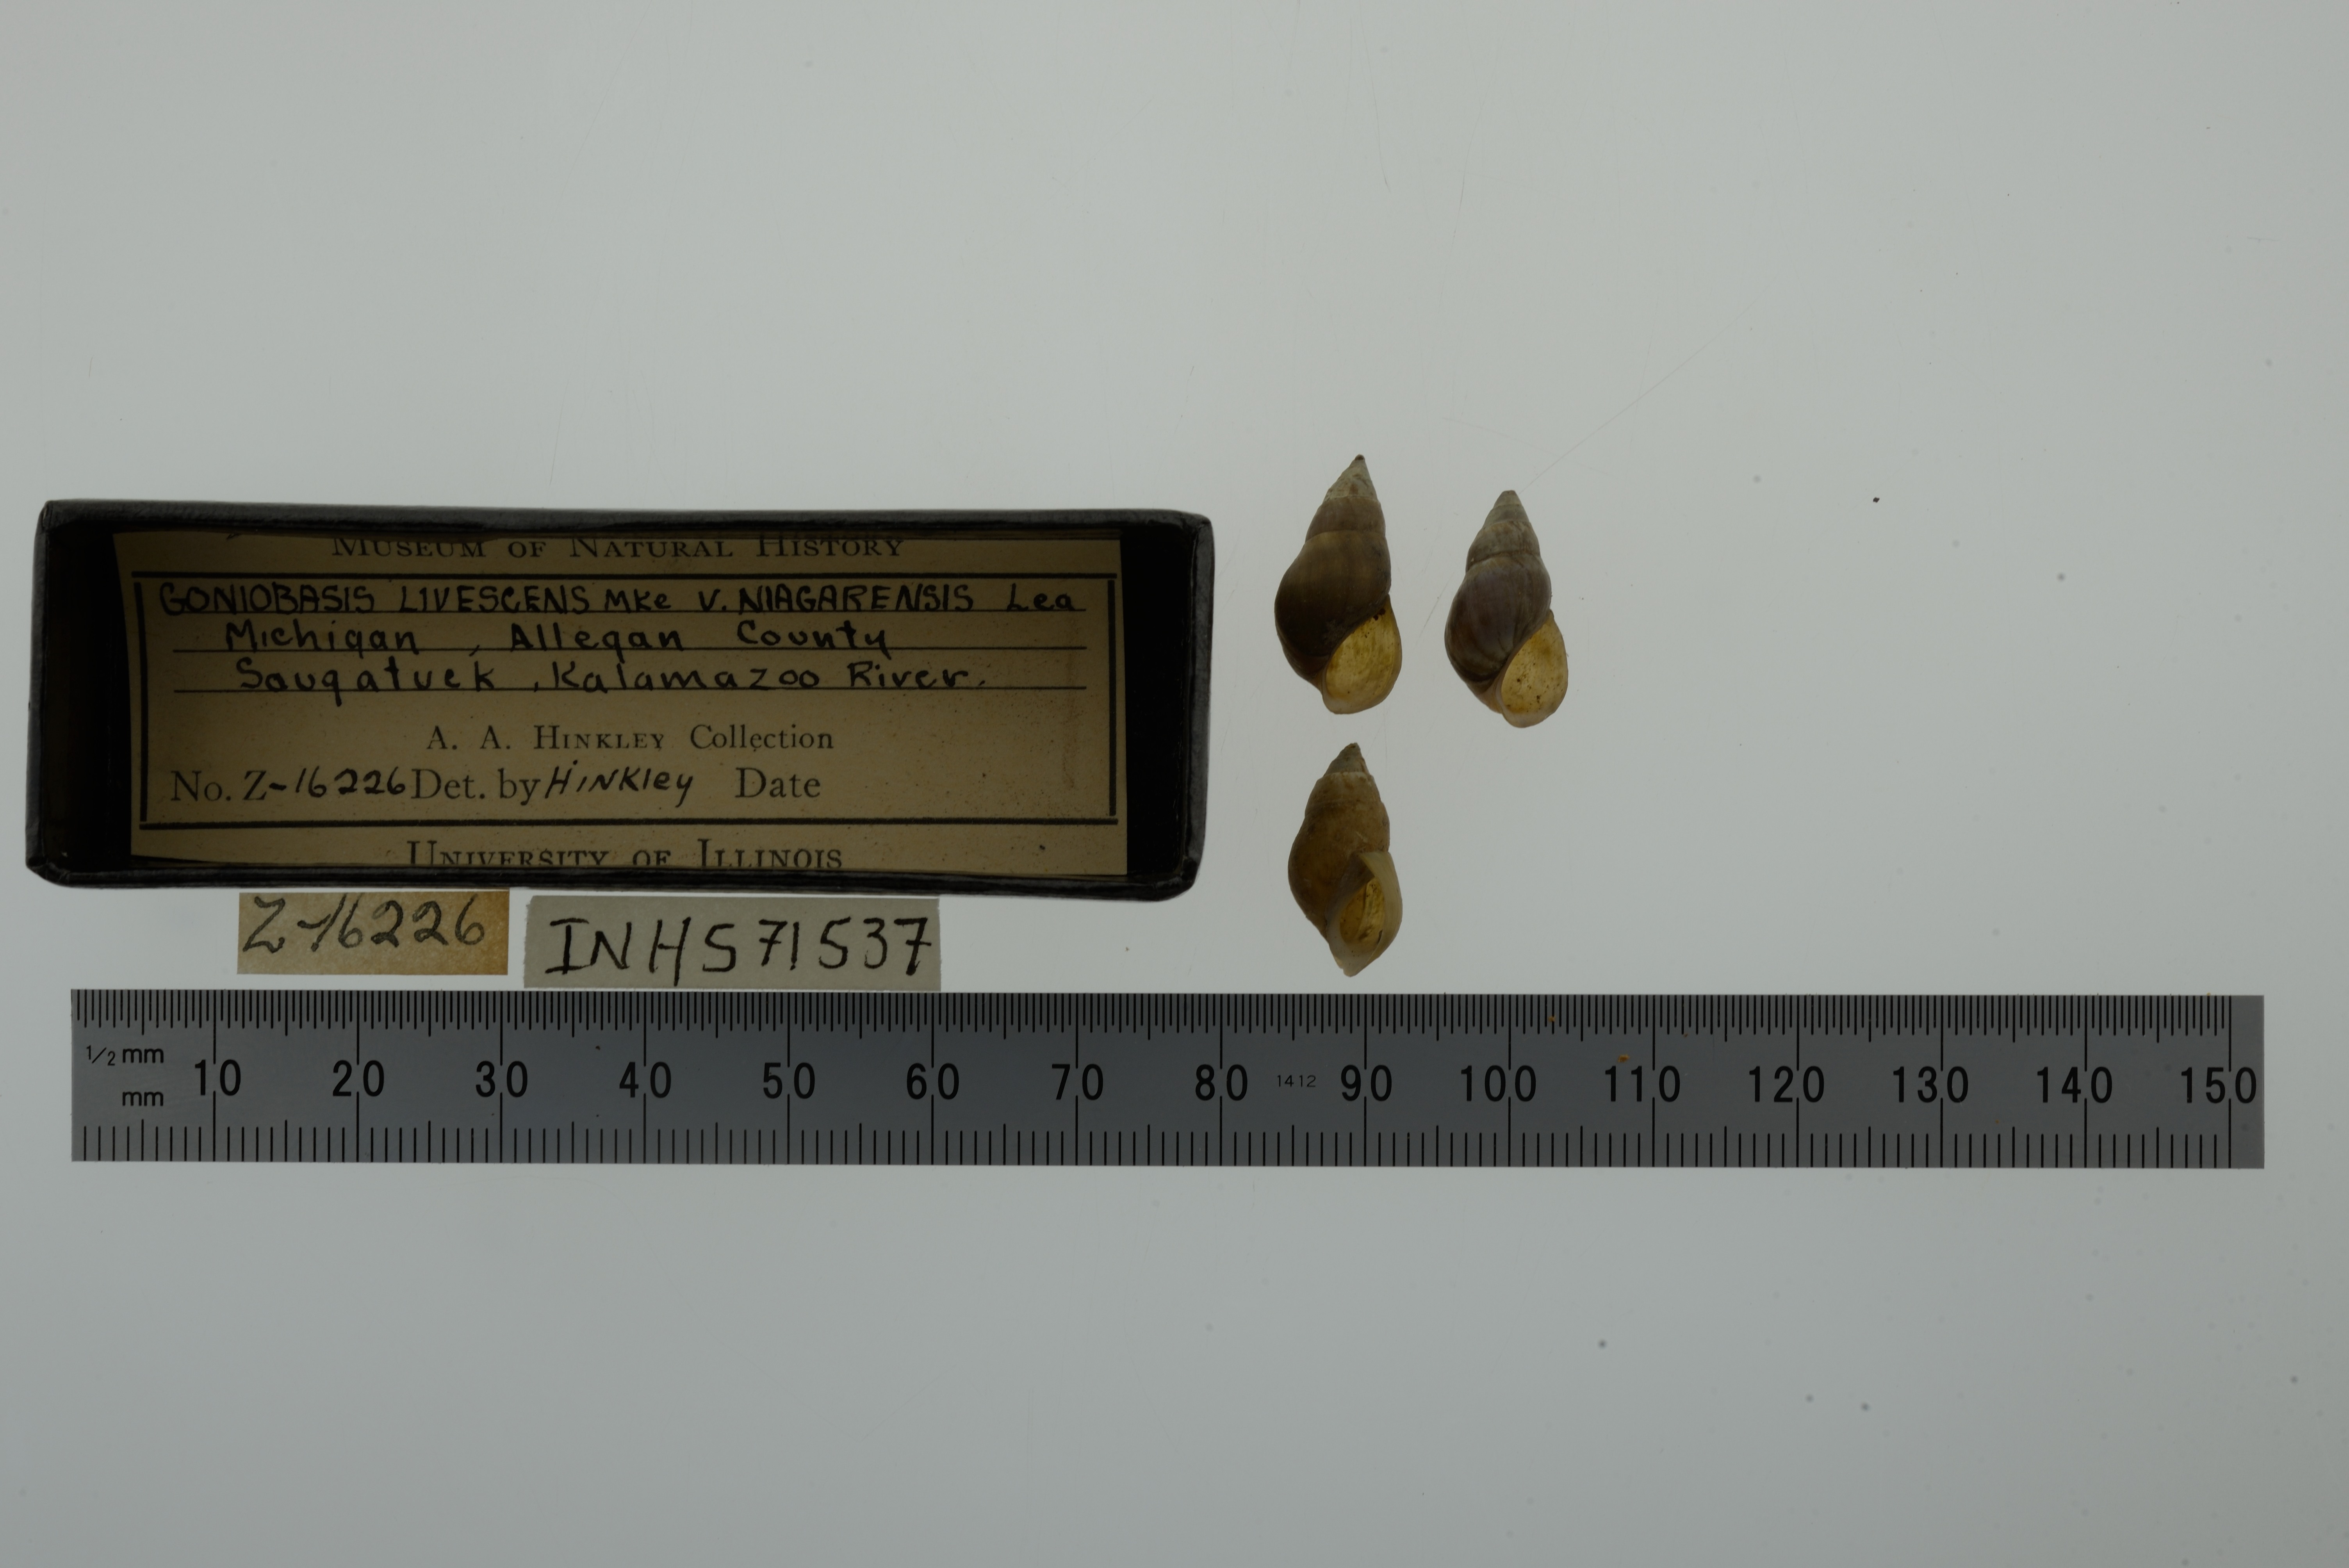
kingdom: Animalia
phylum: Mollusca
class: Gastropoda
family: Pleuroceridae
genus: Elimia
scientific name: Elimia livescens
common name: Liver elimia
